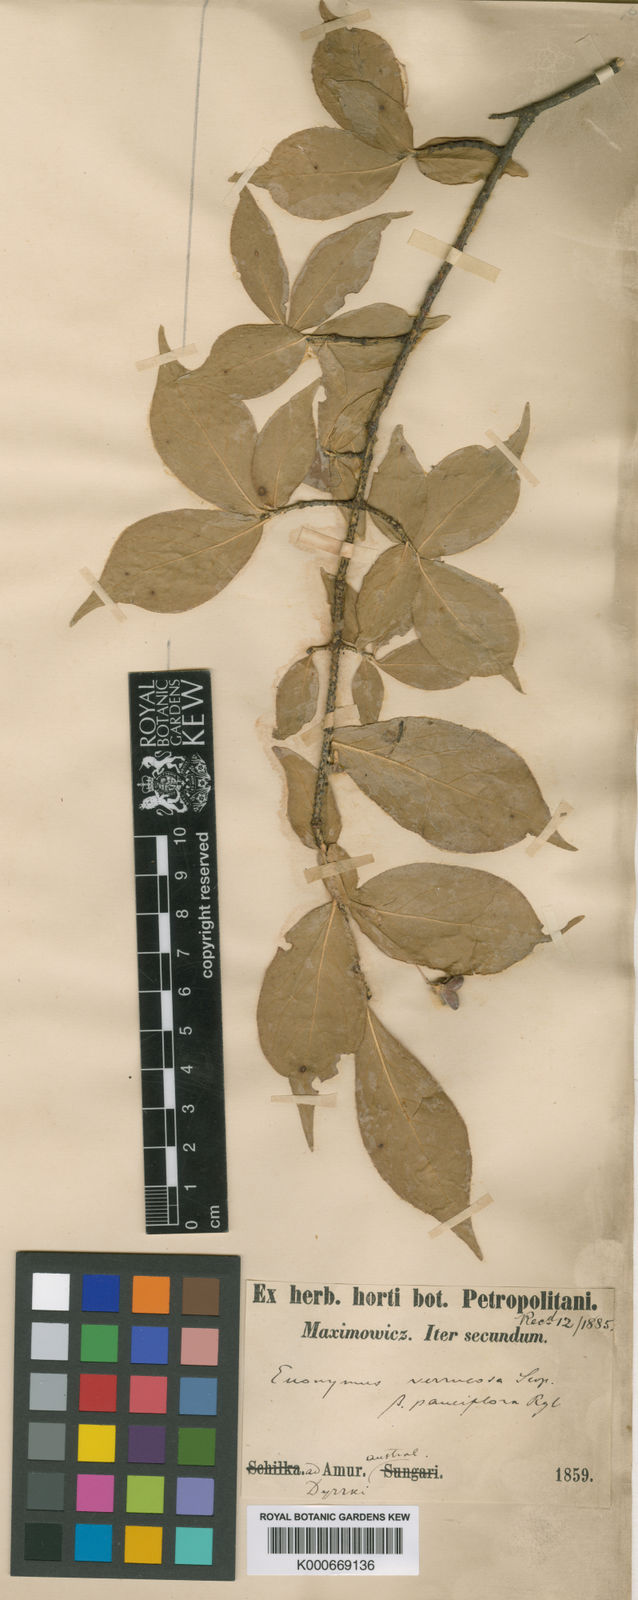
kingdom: Plantae
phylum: Tracheophyta
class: Magnoliopsida
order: Celastrales
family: Celastraceae
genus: Euonymus
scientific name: Euonymus verrucosus
